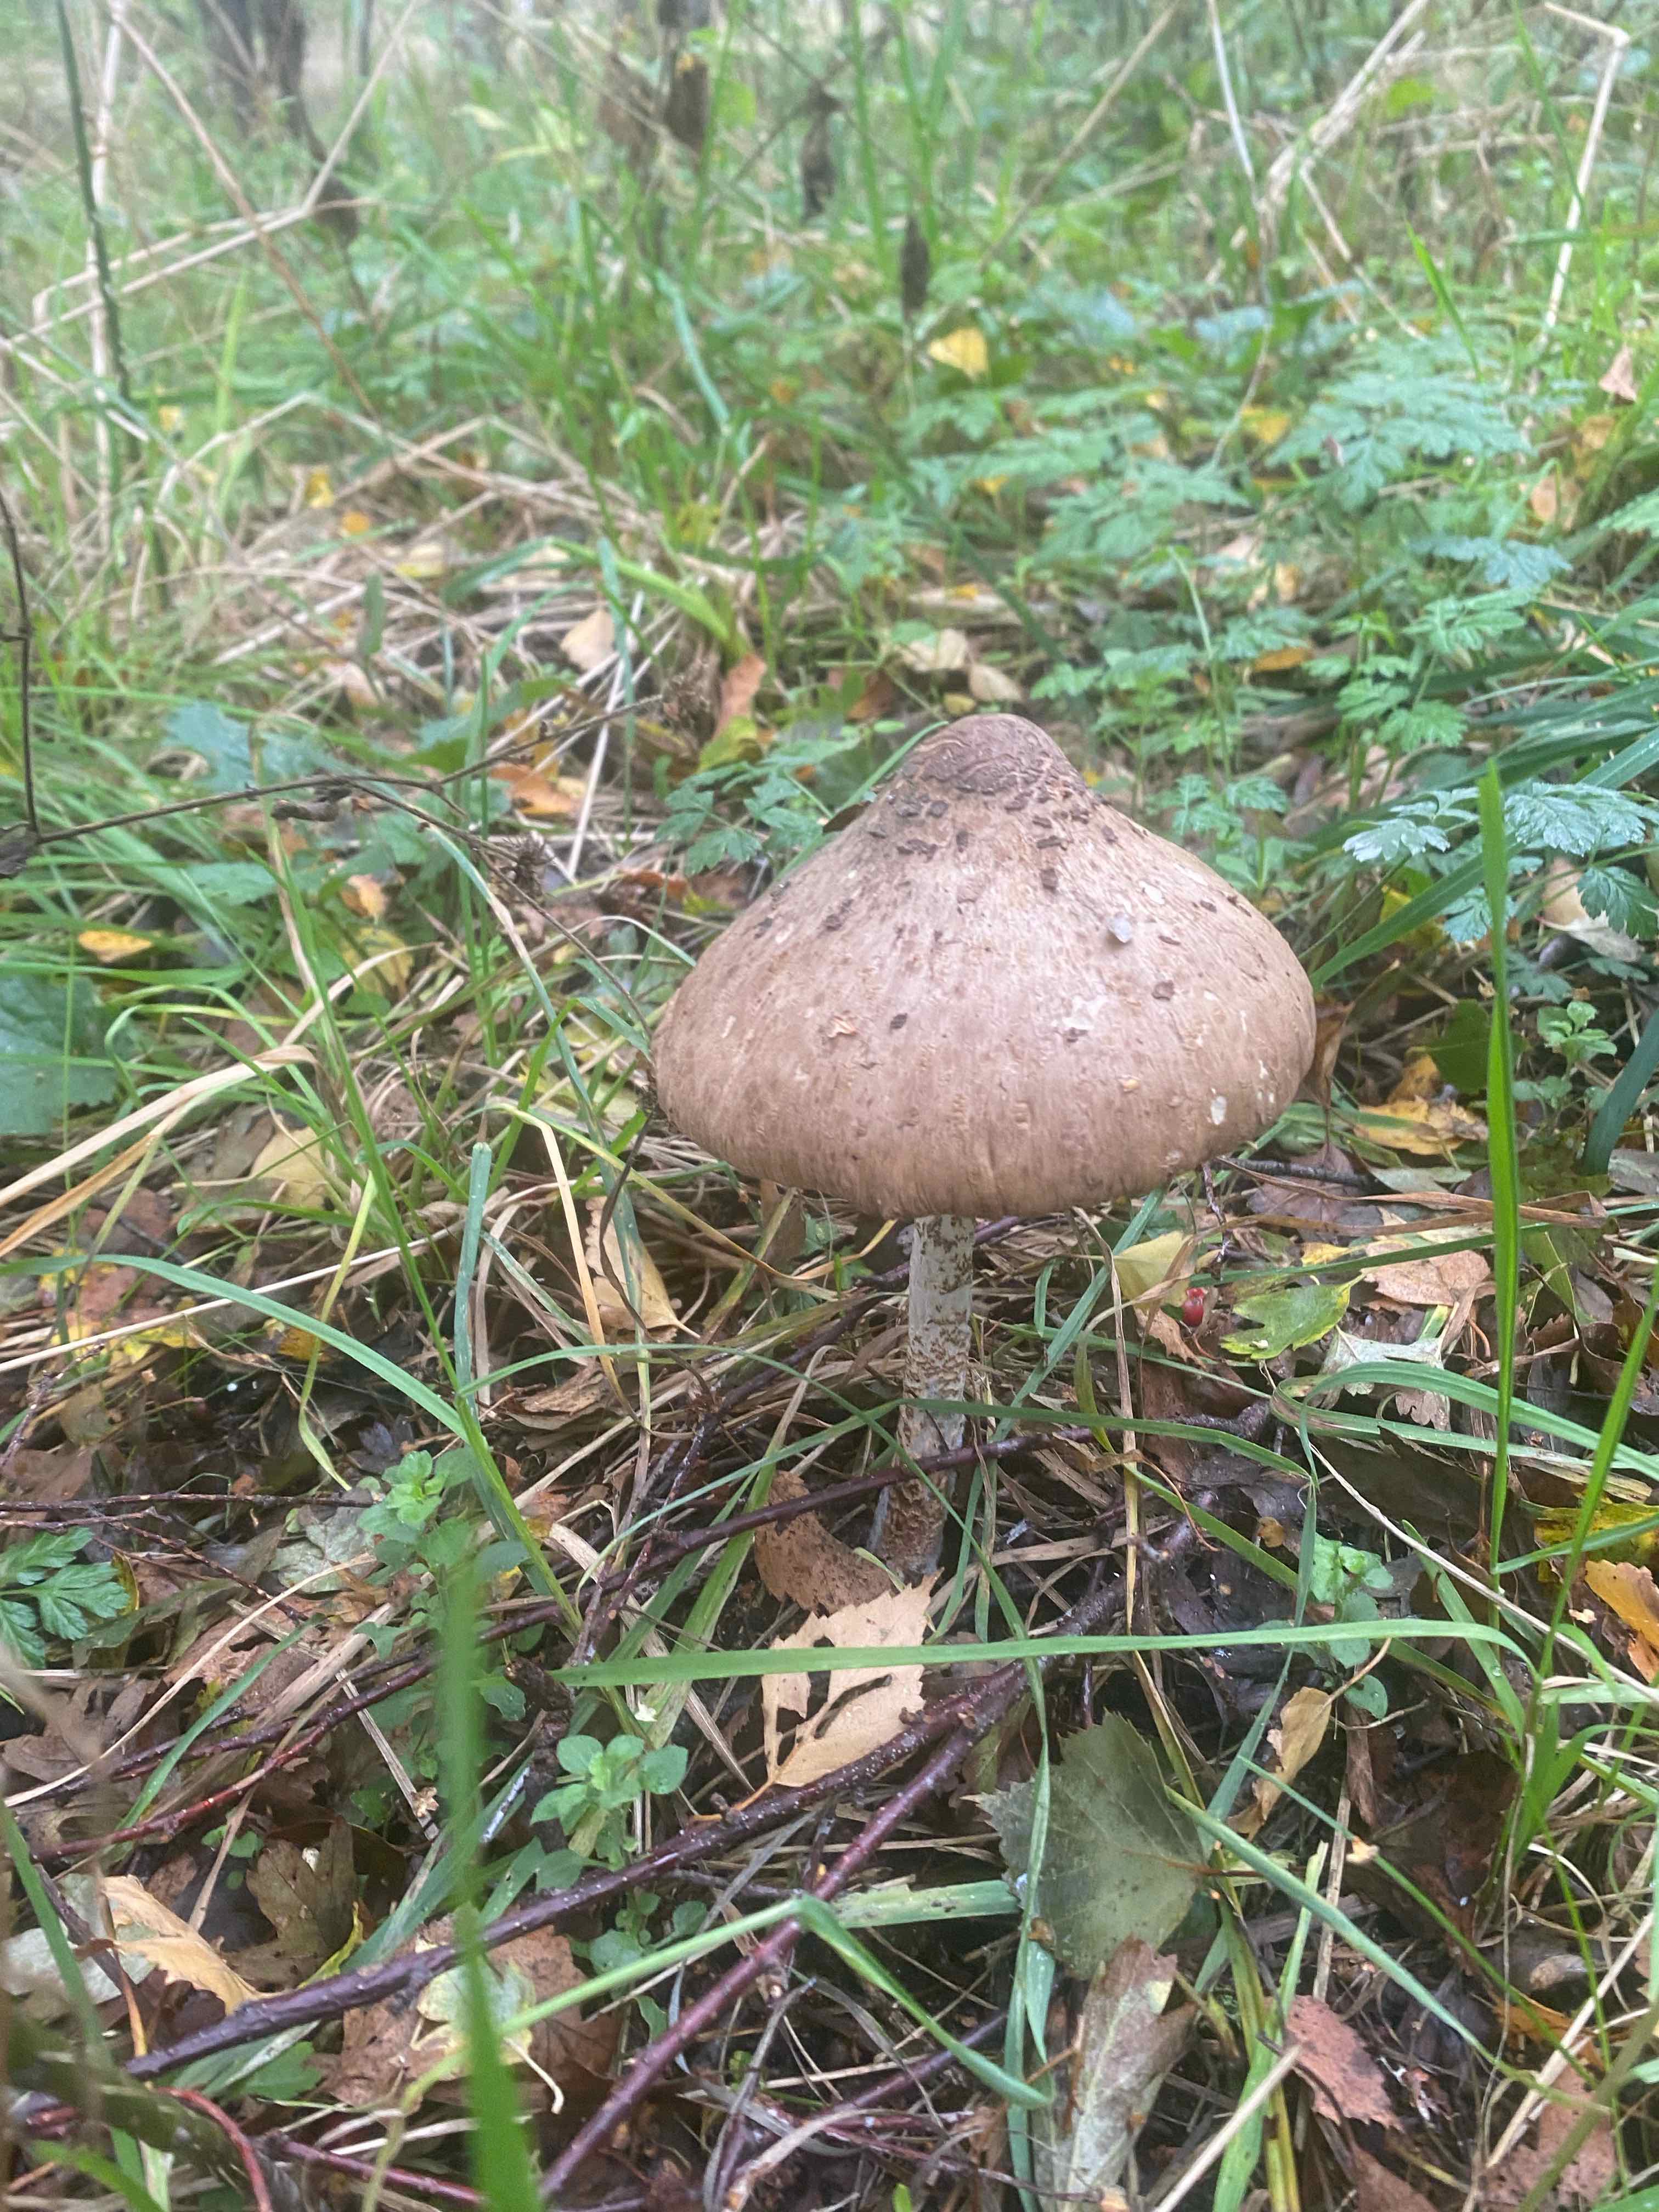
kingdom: Fungi
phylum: Basidiomycota
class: Agaricomycetes
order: Agaricales
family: Agaricaceae
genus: Macrolepiota
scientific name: Macrolepiota
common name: kæmpeparasolhat
